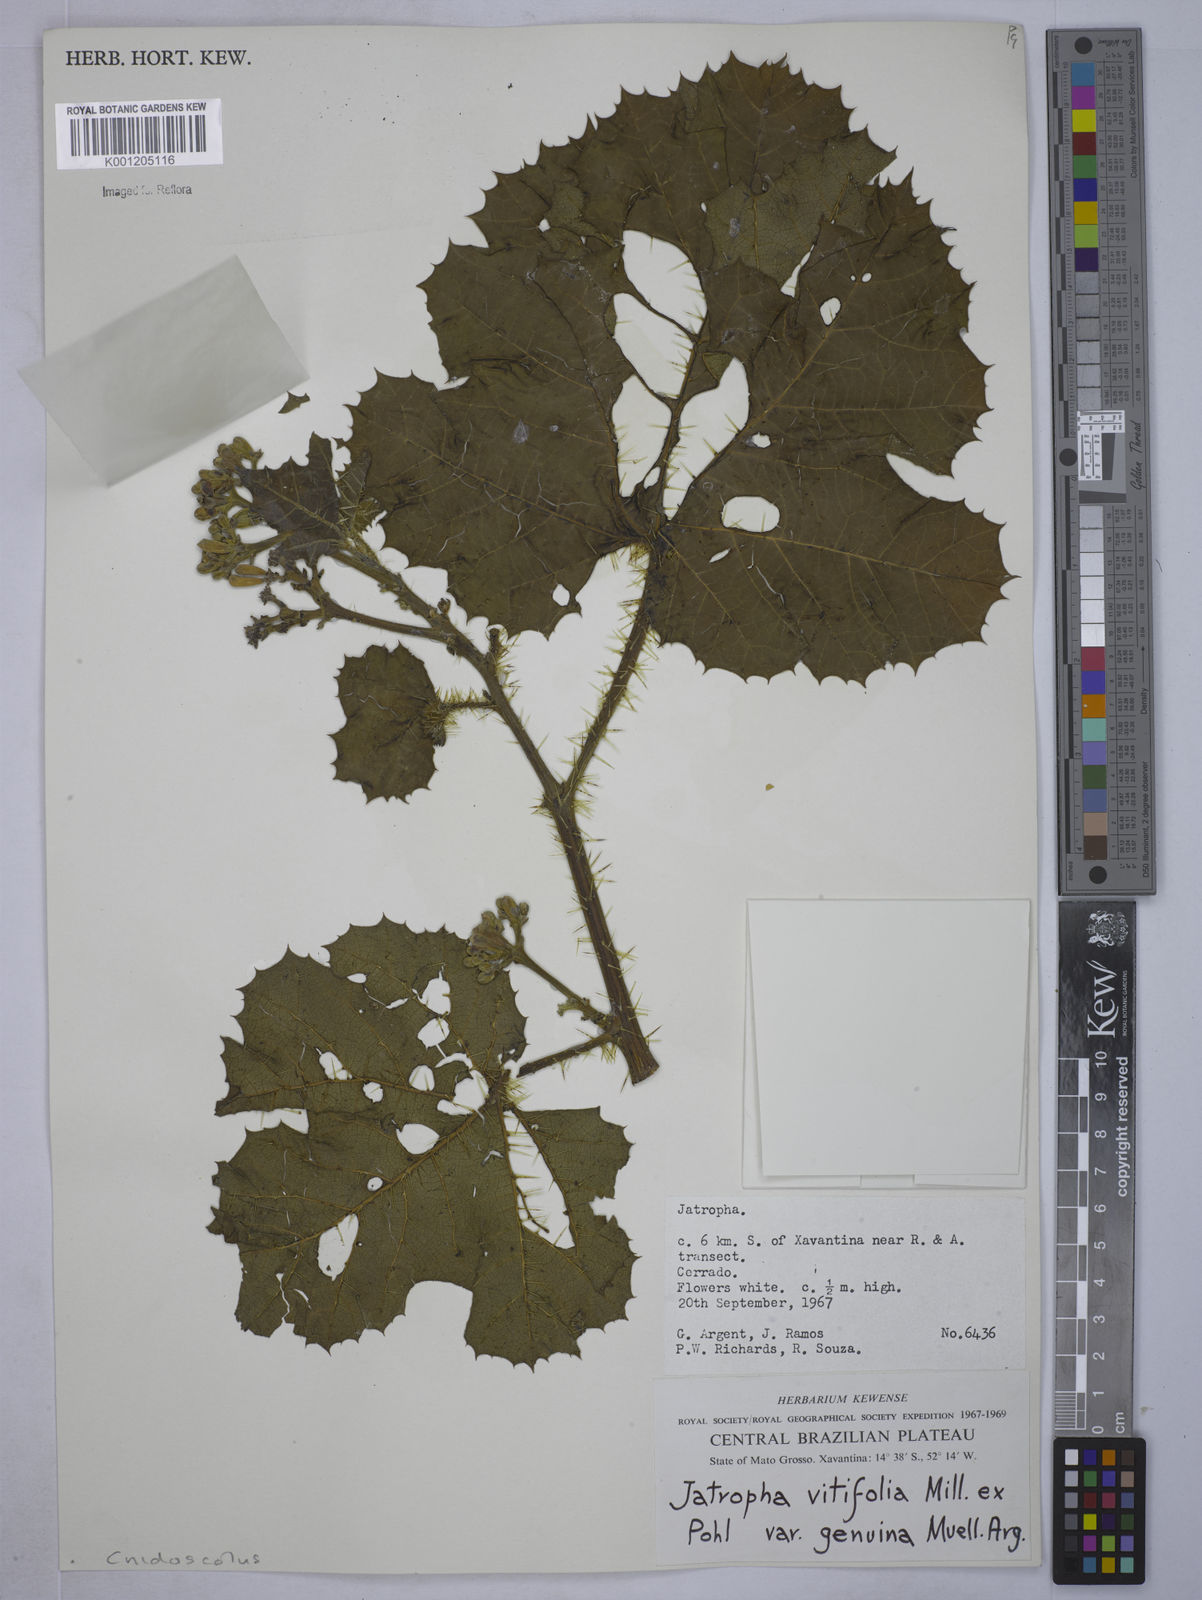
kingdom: Plantae
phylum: Tracheophyta
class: Magnoliopsida
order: Malpighiales
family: Euphorbiaceae
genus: Cnidoscolus
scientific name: Cnidoscolus vitifolius
